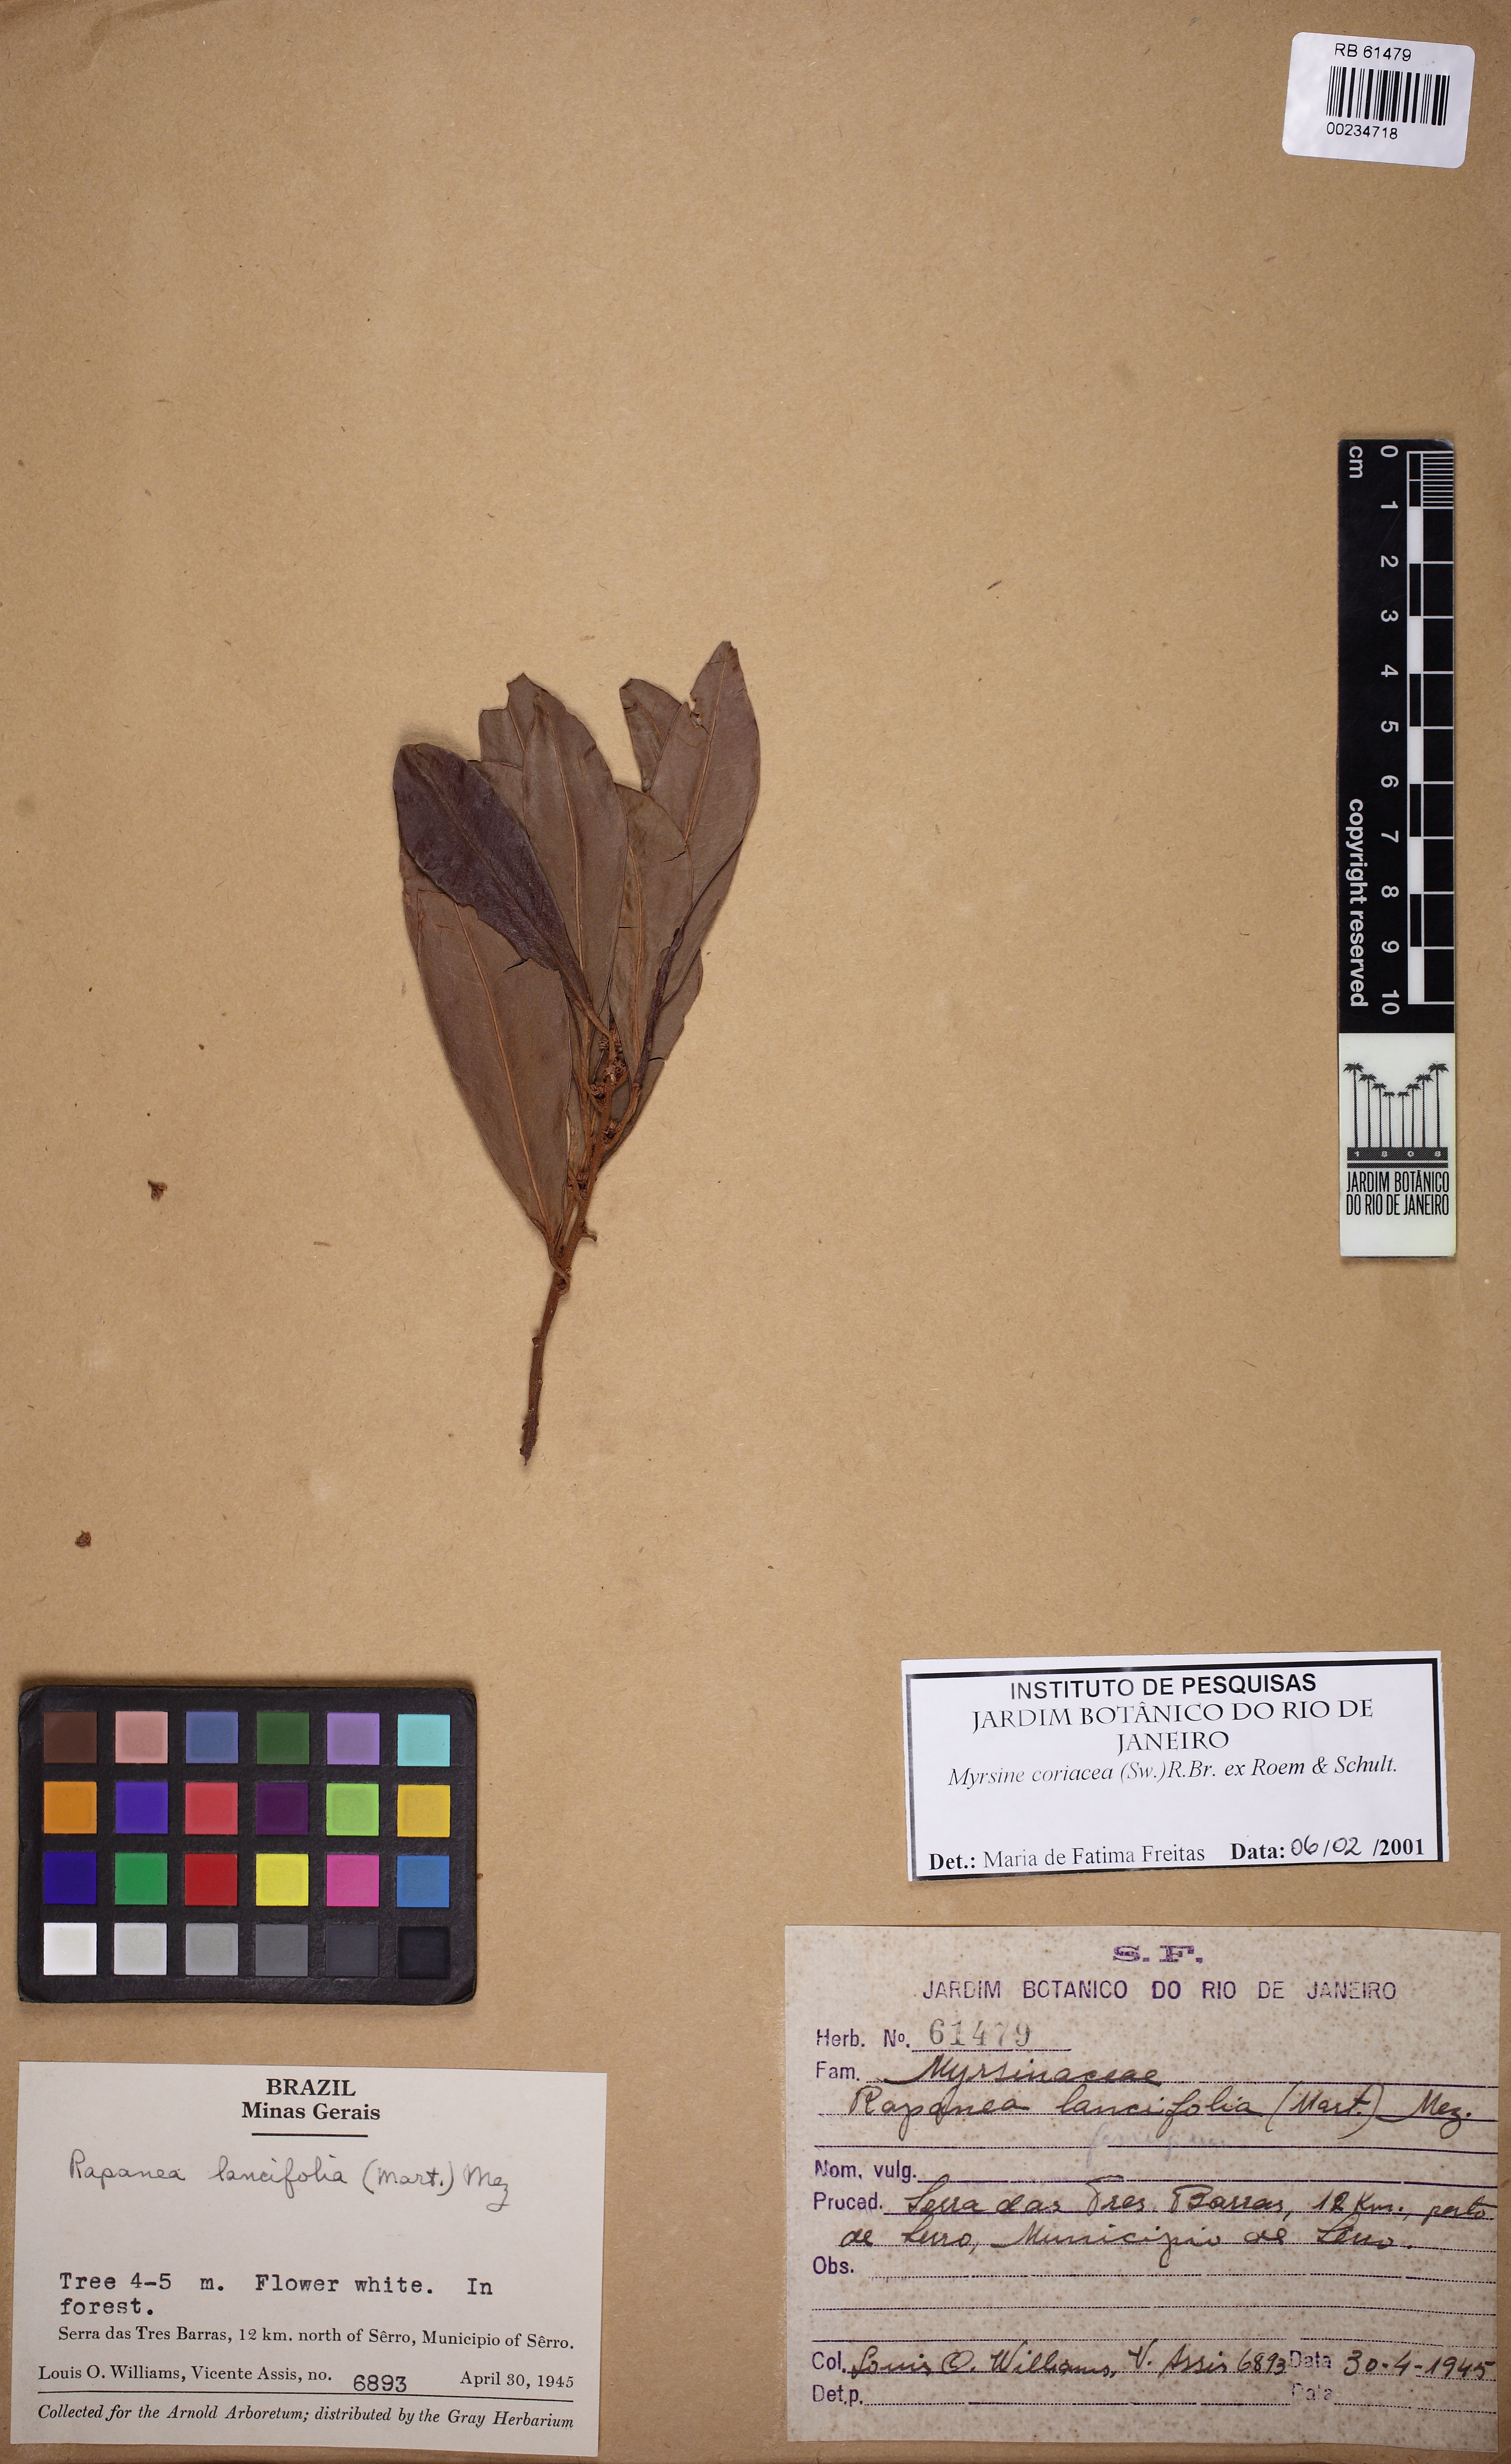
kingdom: Plantae
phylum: Tracheophyta
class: Magnoliopsida
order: Ericales
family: Primulaceae
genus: Myrsine
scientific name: Myrsine coriacea
